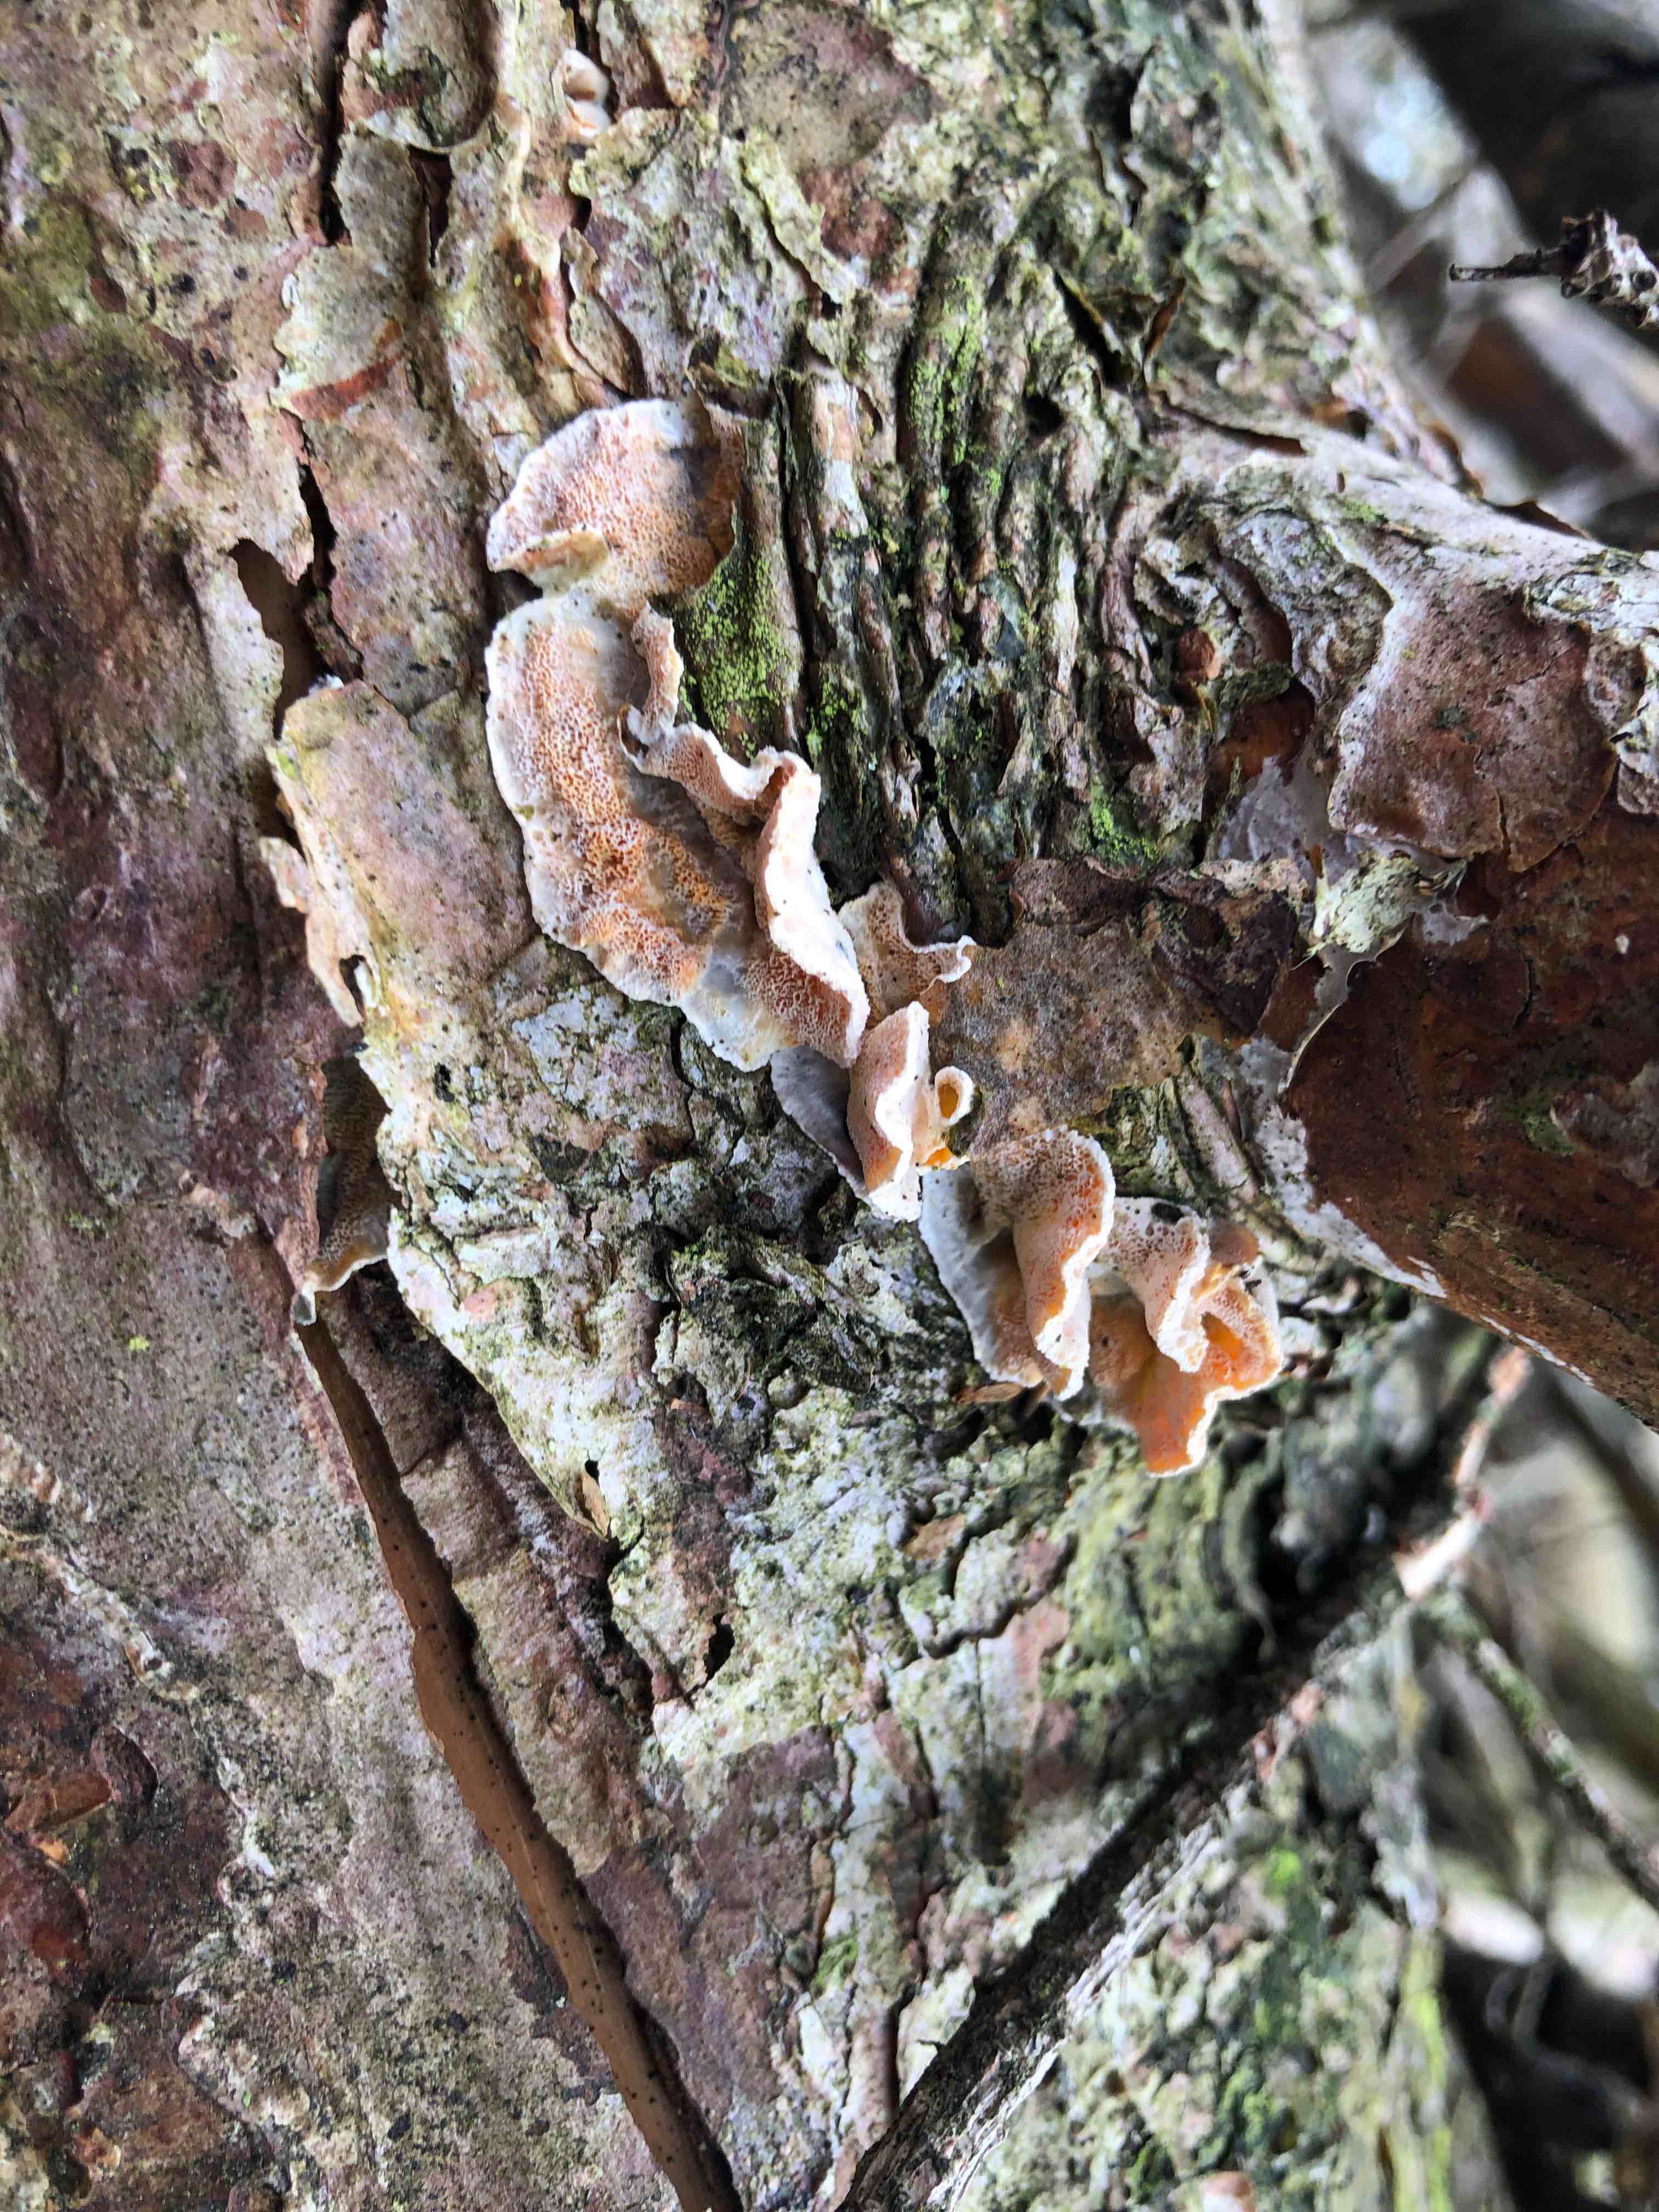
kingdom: Fungi
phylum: Basidiomycota
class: Agaricomycetes
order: Polyporales
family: Incrustoporiaceae
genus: Skeletocutis
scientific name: Skeletocutis amorpha
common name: orange krystalporesvamp
